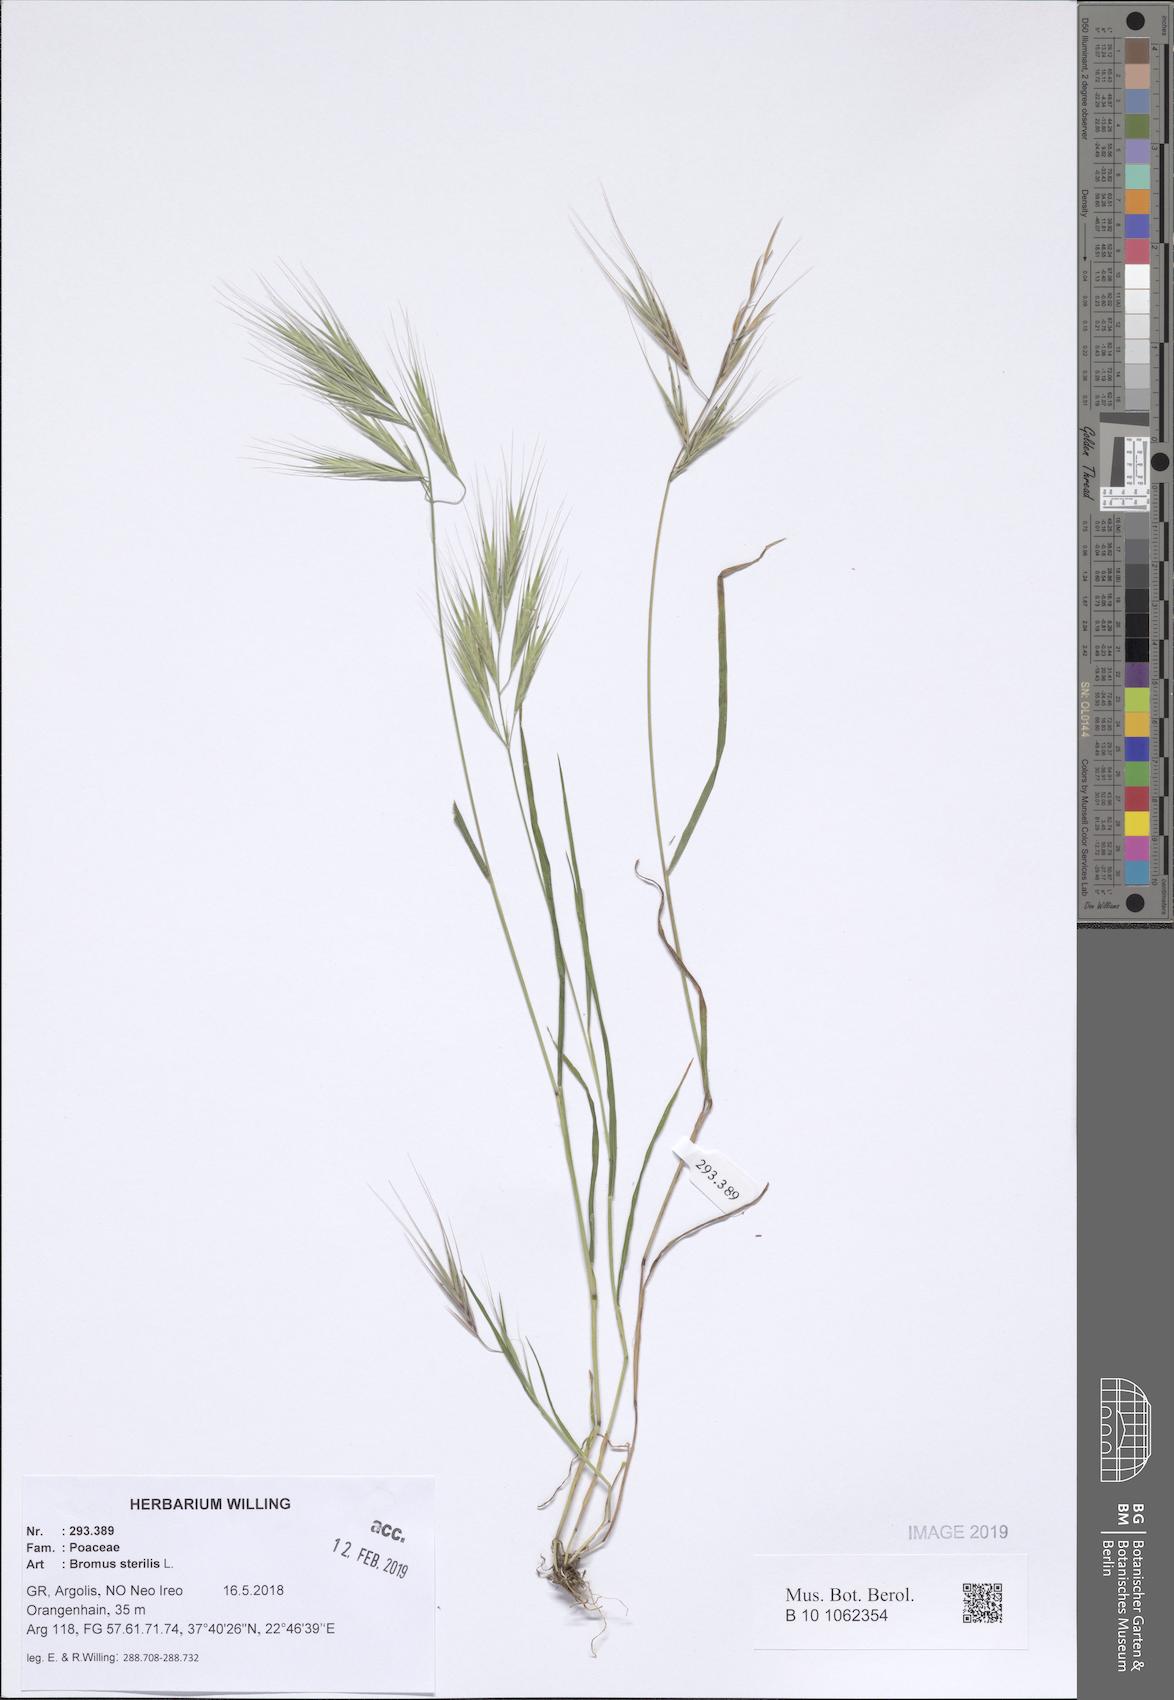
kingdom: Plantae
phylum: Tracheophyta
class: Liliopsida
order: Poales
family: Poaceae
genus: Bromus
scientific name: Bromus sterilis
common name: Poverty brome
